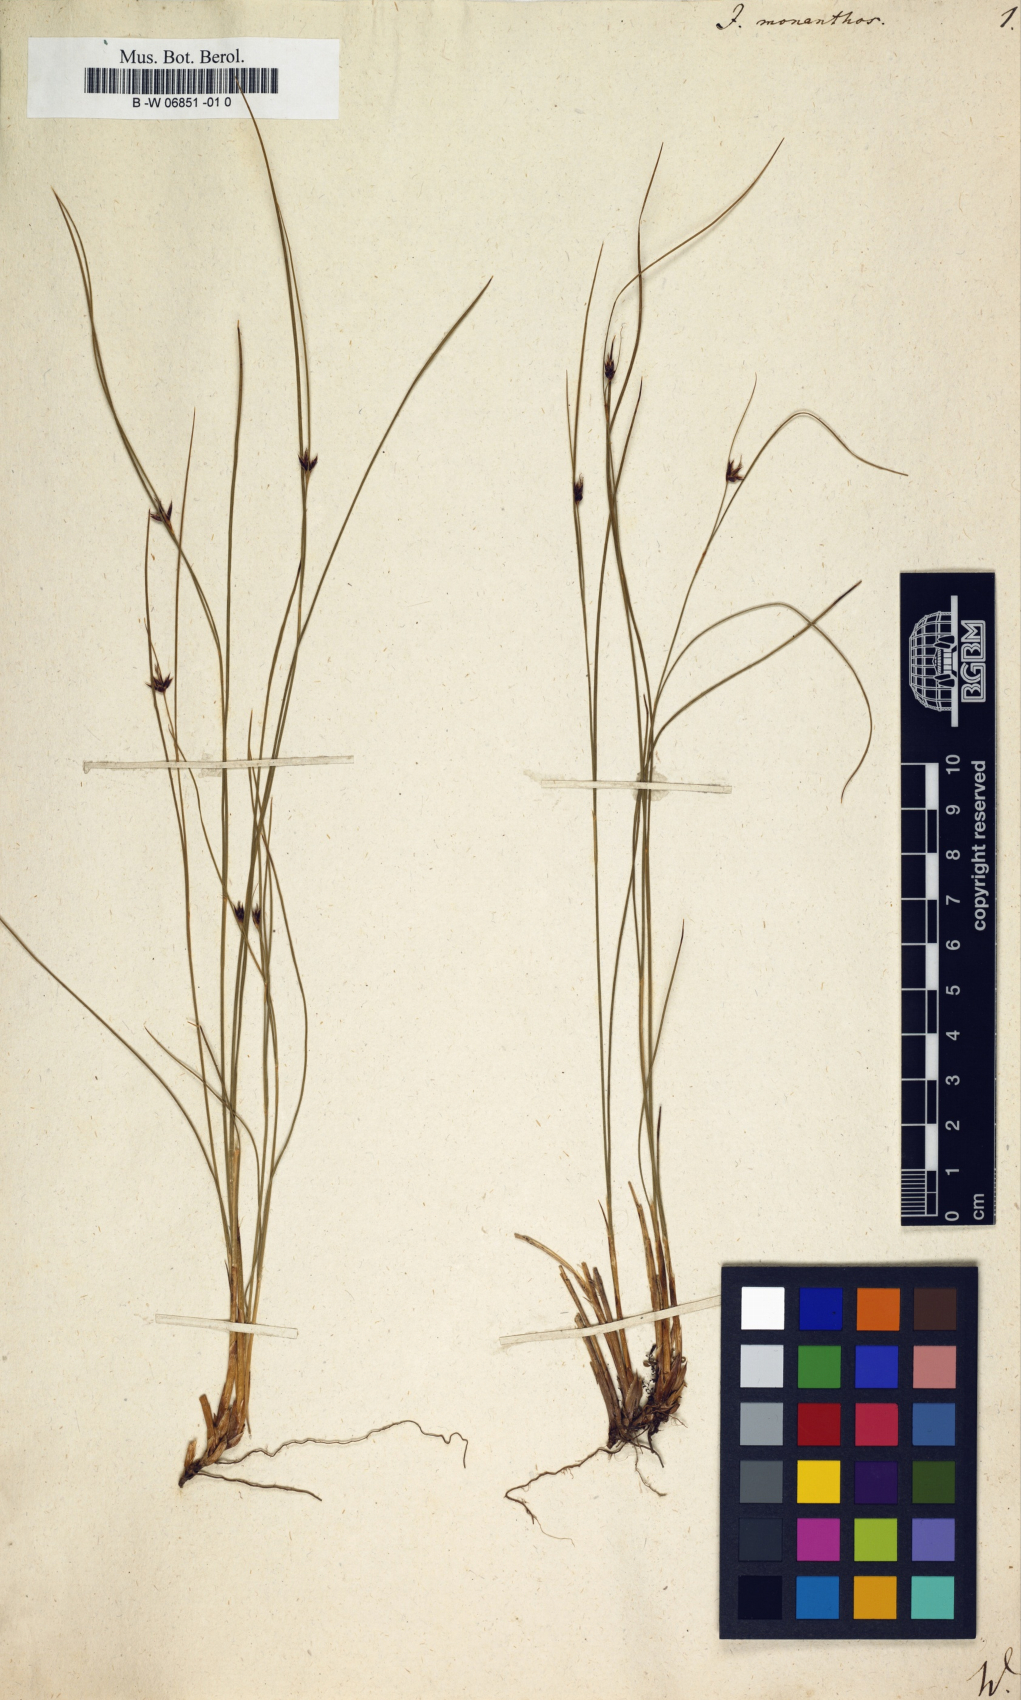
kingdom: Plantae
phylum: Tracheophyta
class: Liliopsida
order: Poales
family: Juncaceae
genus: Oreojuncus
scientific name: Oreojuncus monanthos
